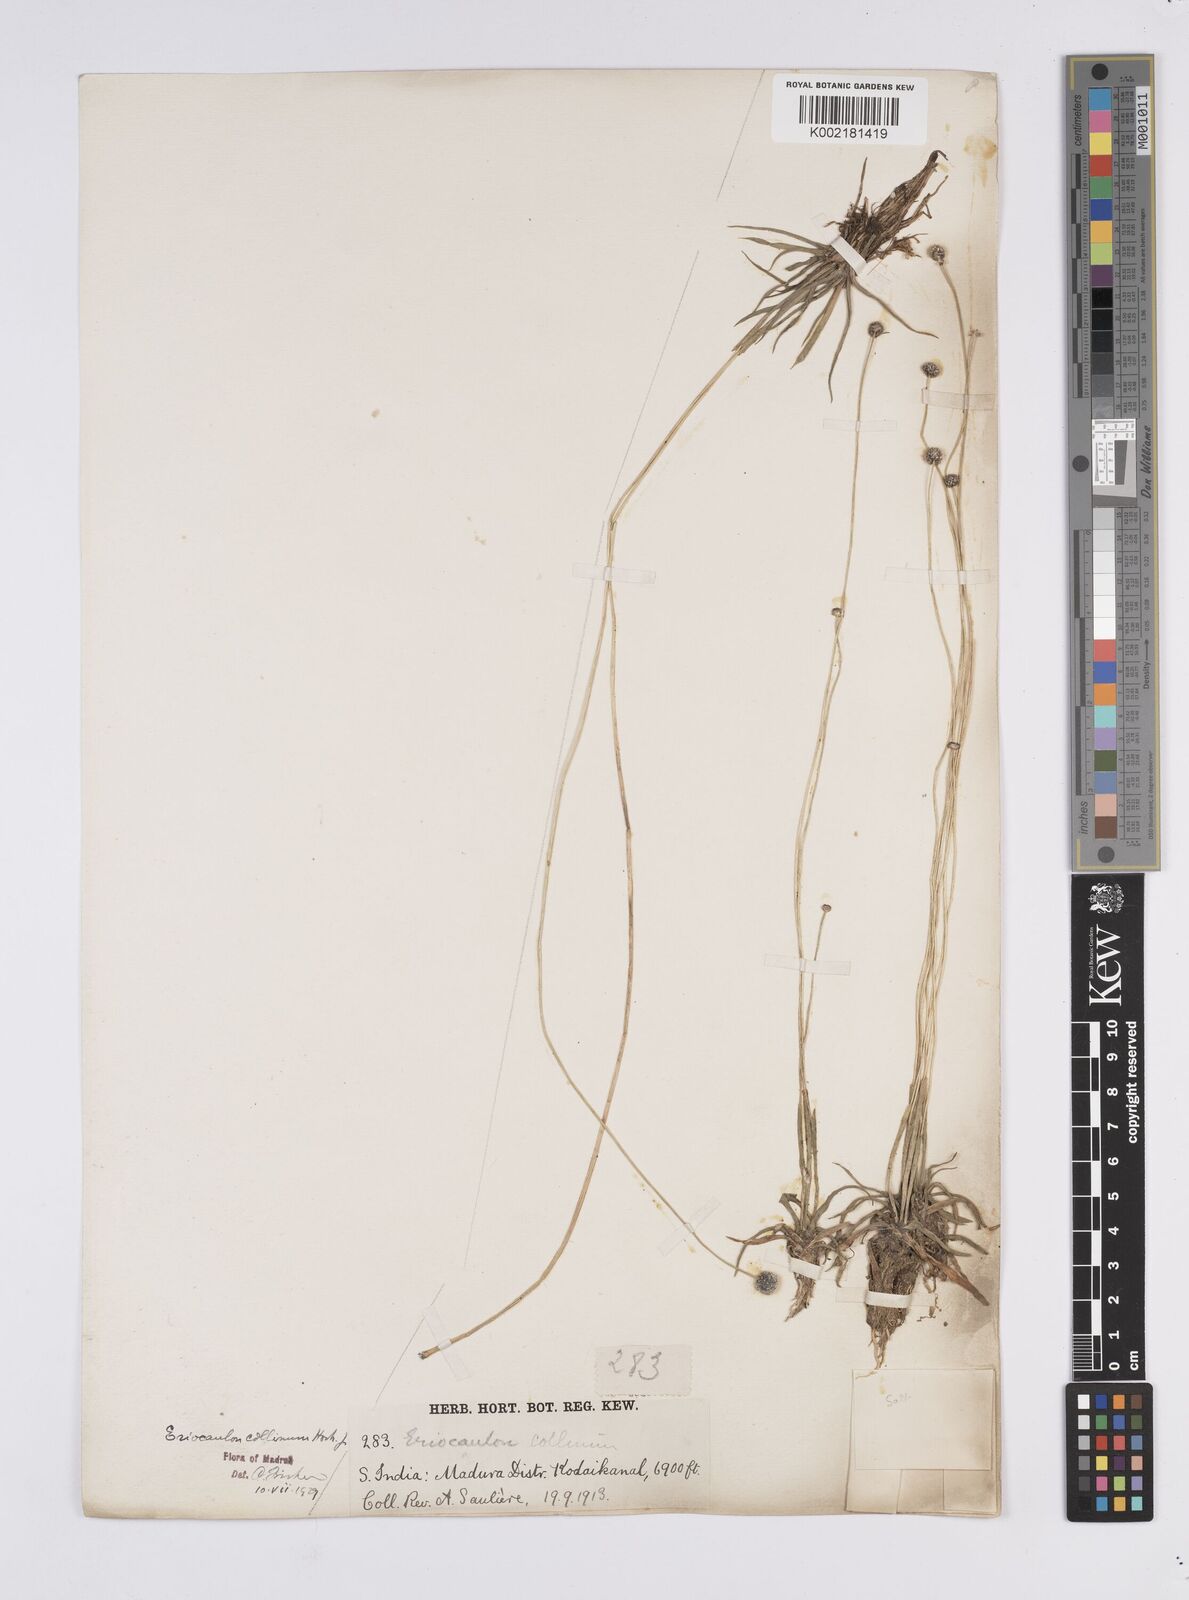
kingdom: Plantae
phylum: Tracheophyta
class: Liliopsida
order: Poales
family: Eriocaulaceae
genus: Eriocaulon
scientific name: Eriocaulon odoratum
